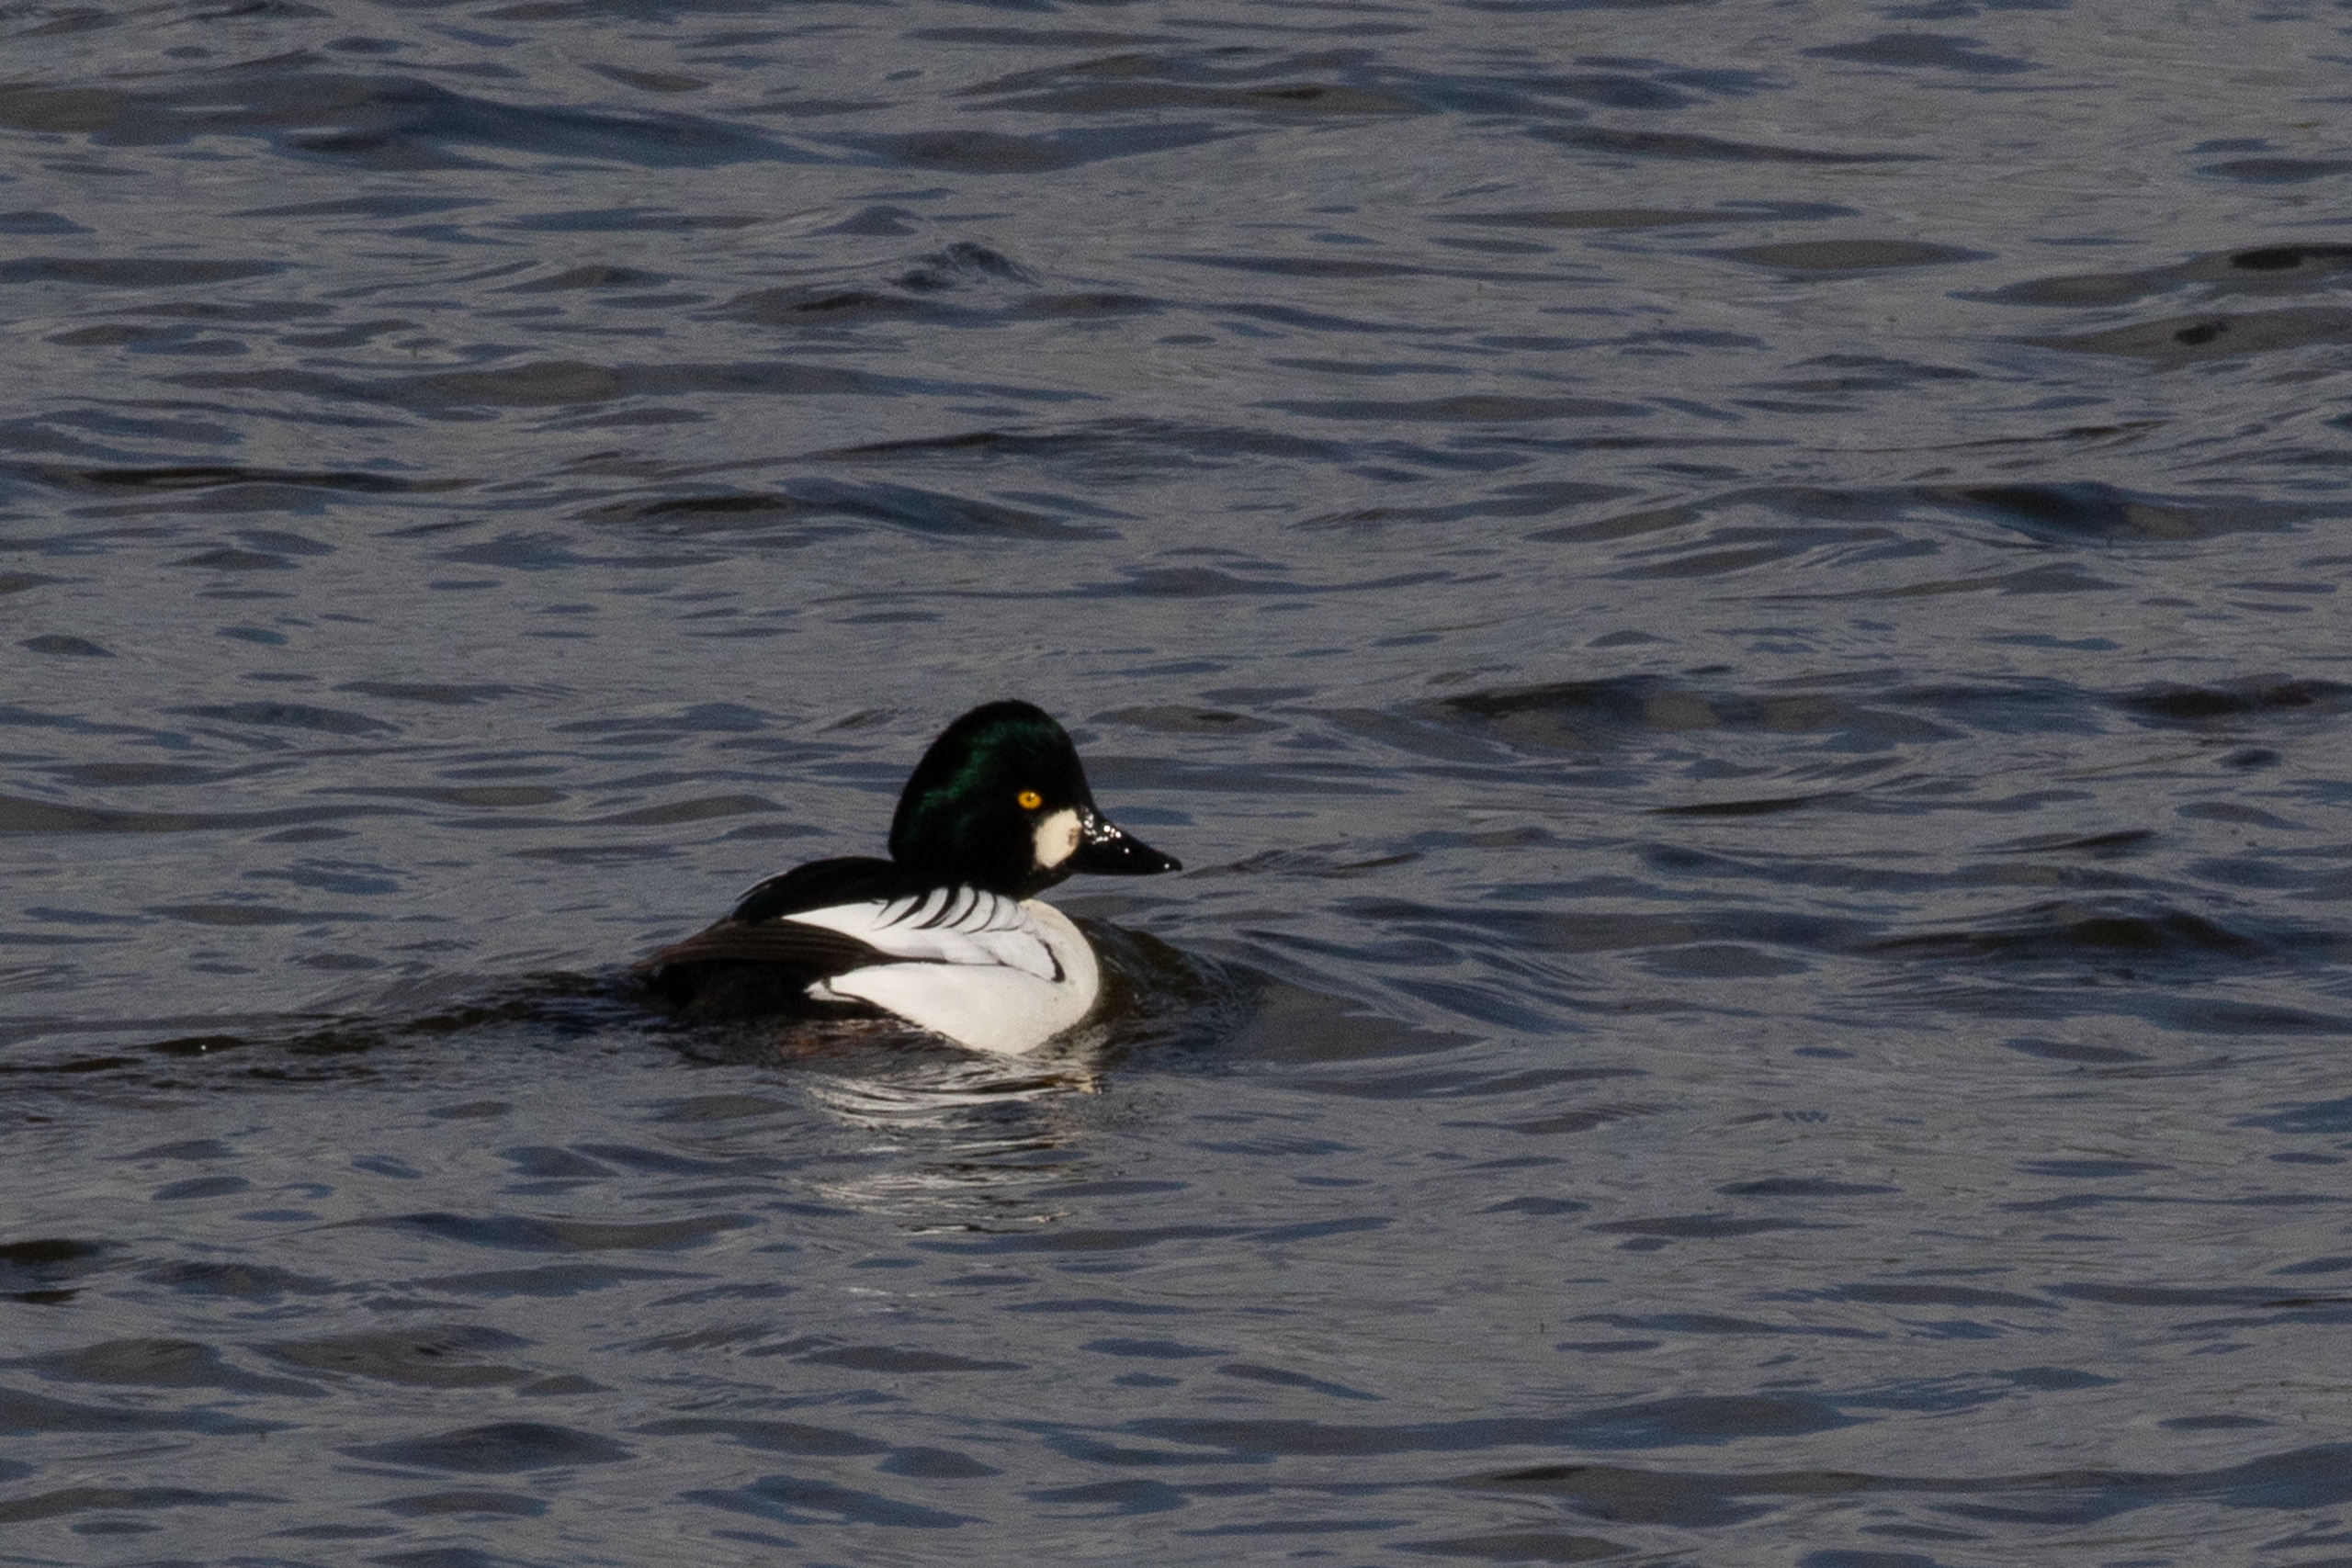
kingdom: Animalia
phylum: Chordata
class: Aves
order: Anseriformes
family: Anatidae
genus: Bucephala
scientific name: Bucephala clangula
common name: Hvinand
